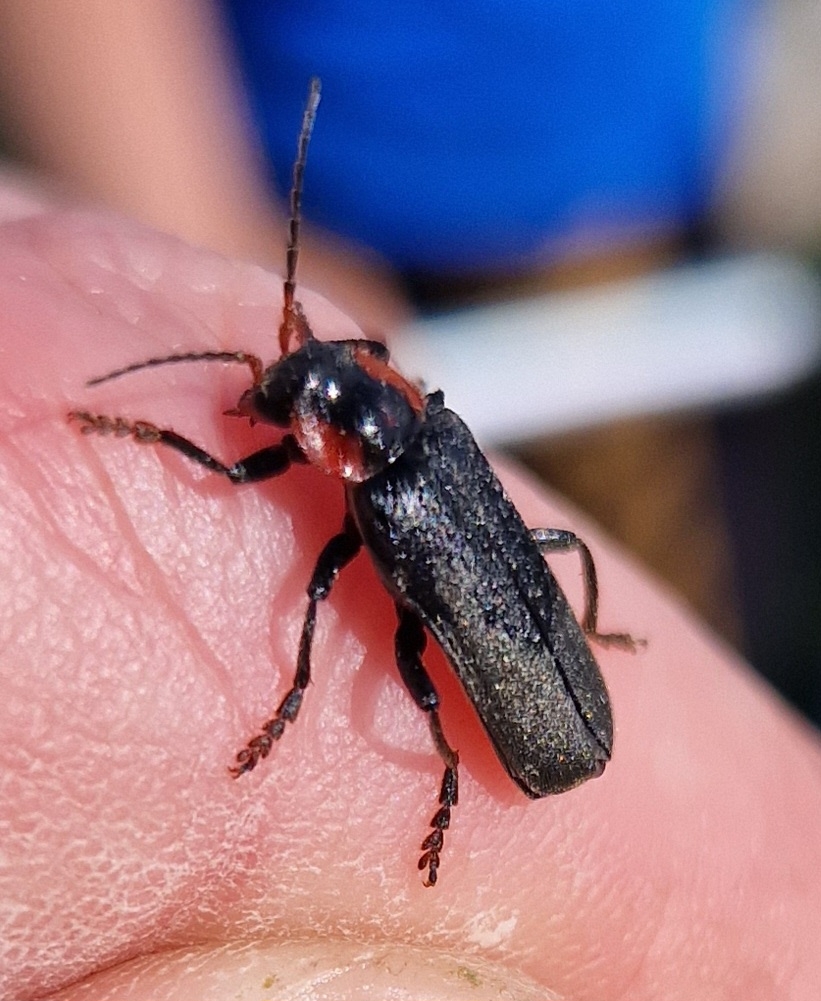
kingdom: Animalia
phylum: Arthropoda
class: Insecta
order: Coleoptera
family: Cantharidae
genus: Cantharis
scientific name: Cantharis fusca
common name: Stor blødvinge
